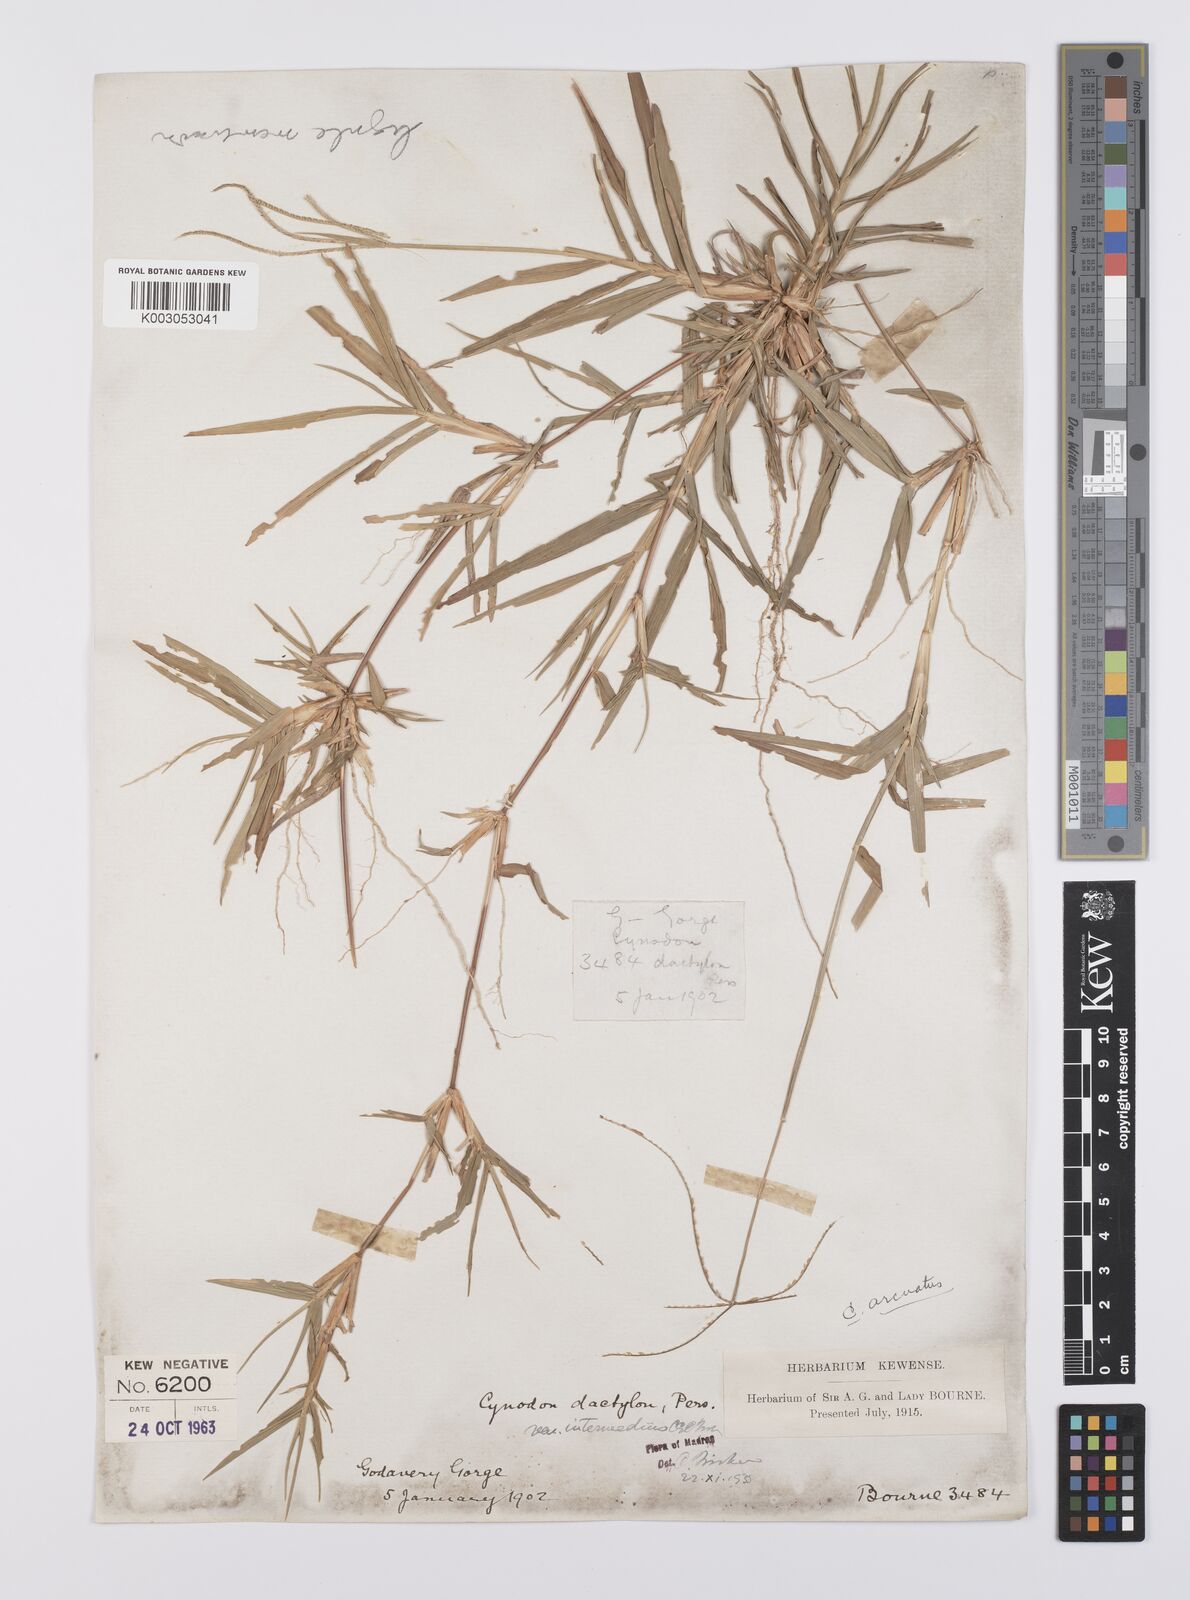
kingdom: Plantae
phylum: Tracheophyta
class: Liliopsida
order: Poales
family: Poaceae
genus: Cynodon
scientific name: Cynodon radiatus
